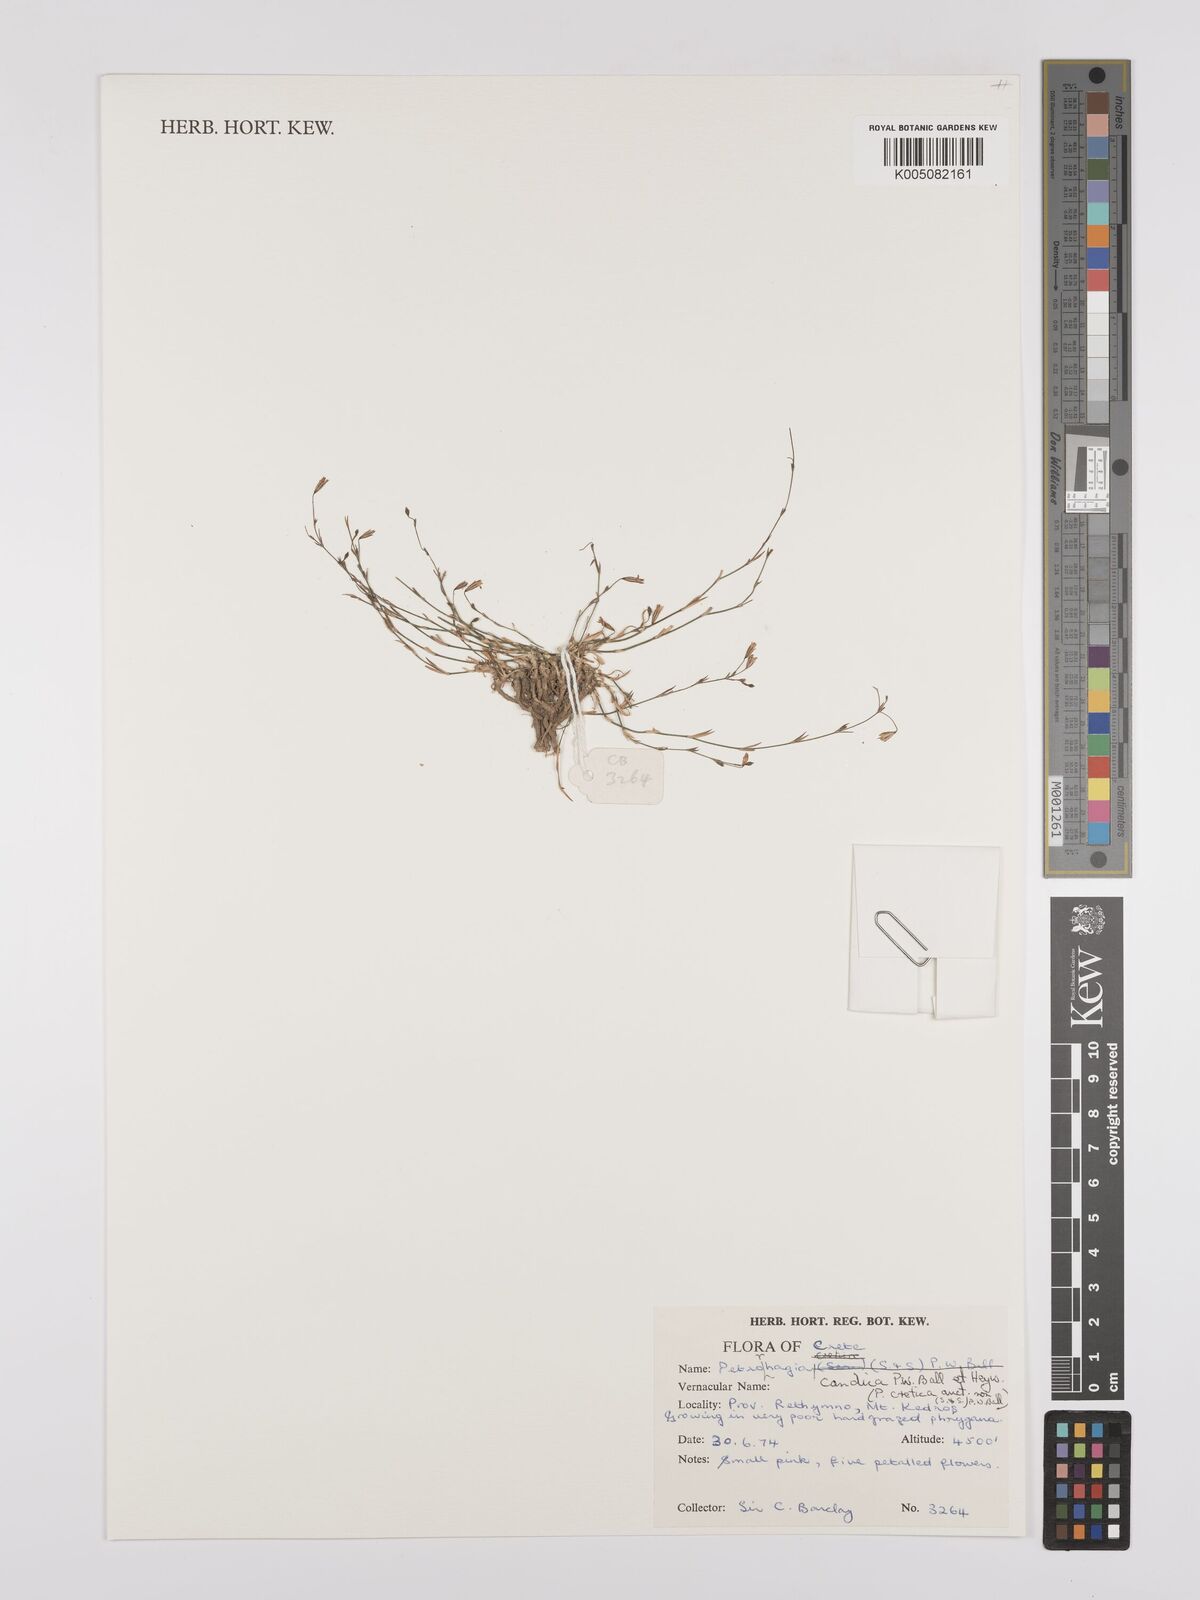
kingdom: Plantae
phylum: Tracheophyta
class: Magnoliopsida
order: Caryophyllales
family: Caryophyllaceae
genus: Dianthus
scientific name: Dianthus candicus
